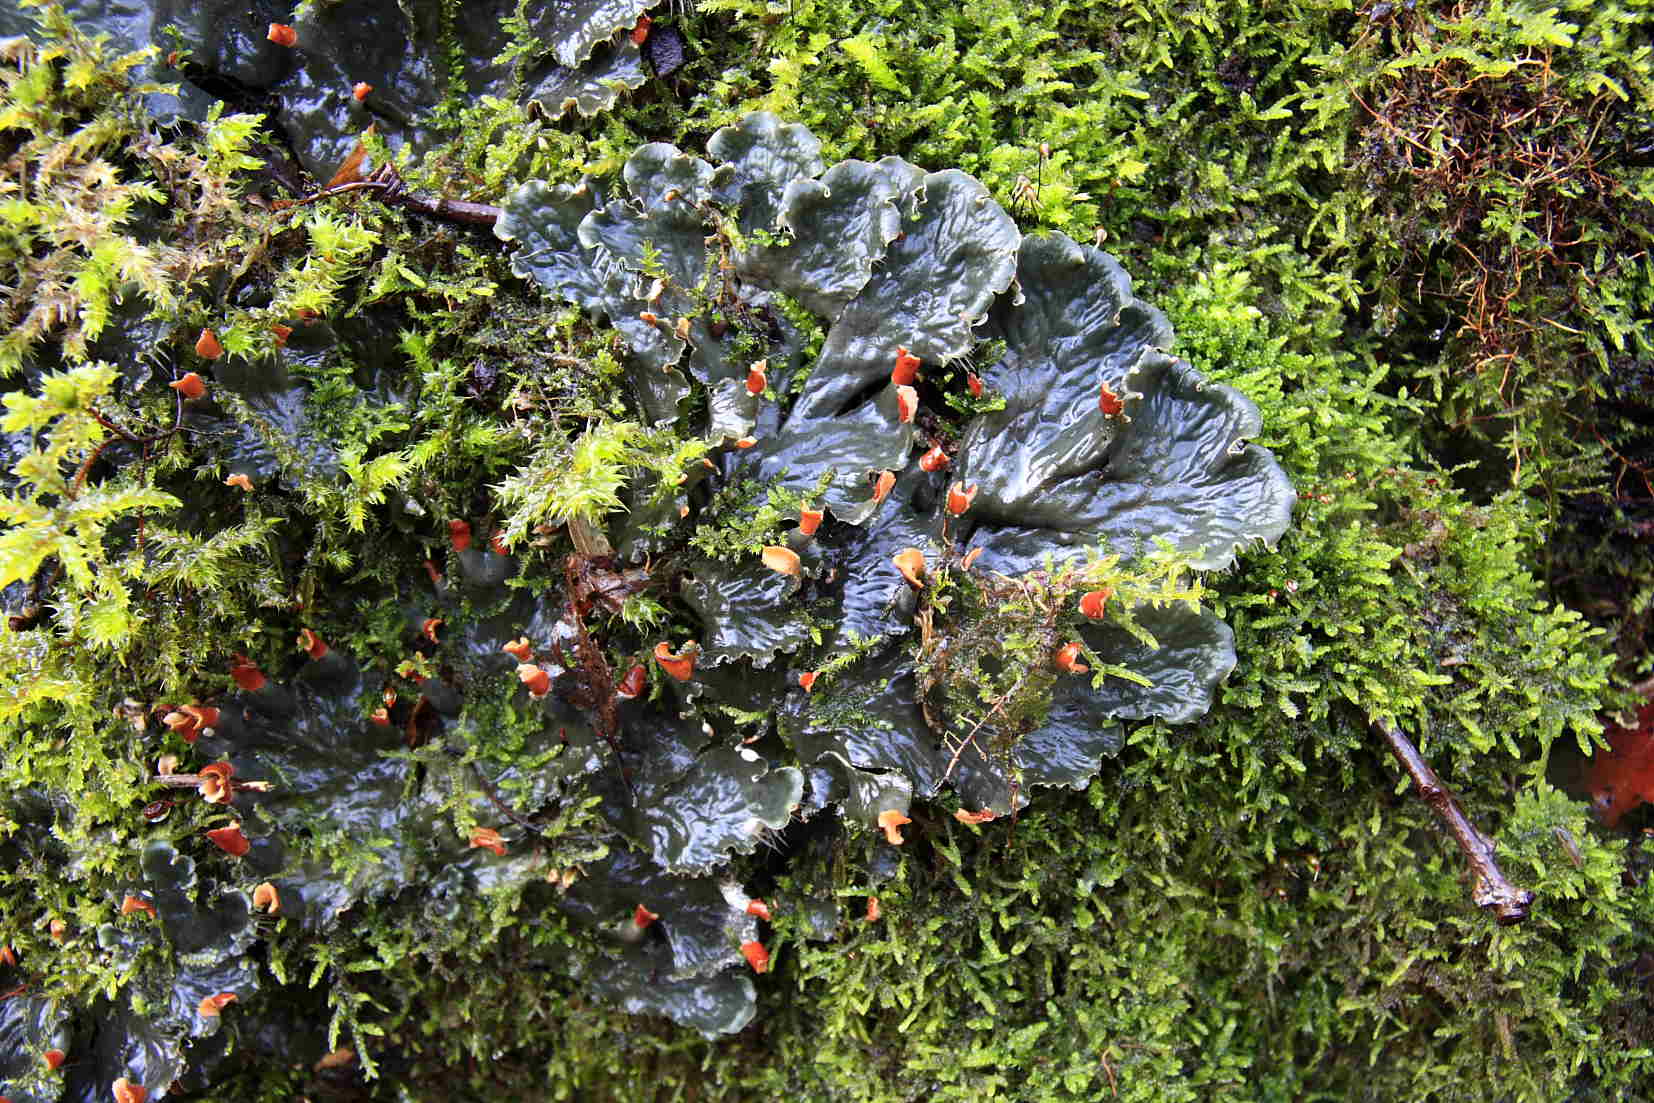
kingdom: Fungi
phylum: Ascomycota
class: Lecanoromycetes
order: Peltigerales
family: Peltigeraceae
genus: Peltigera
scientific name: Peltigera praetextata
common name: kruset skjoldlav
